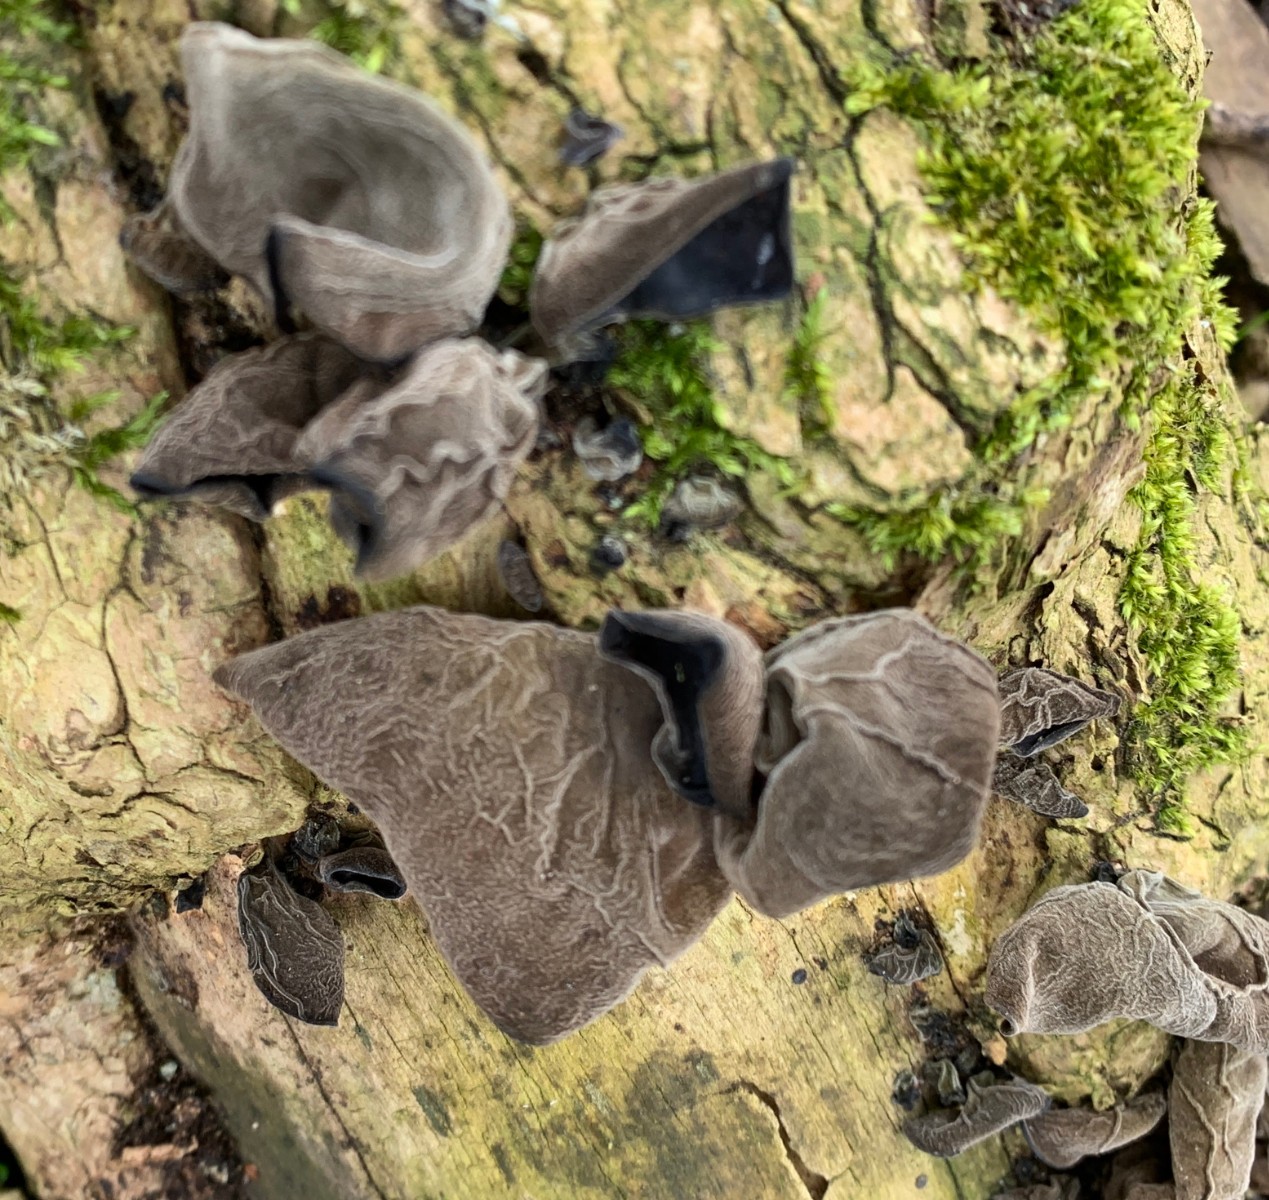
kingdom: Fungi
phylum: Basidiomycota
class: Agaricomycetes
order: Auriculariales
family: Auriculariaceae
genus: Auricularia
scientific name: Auricularia auricula-judae
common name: almindelig judasøre
